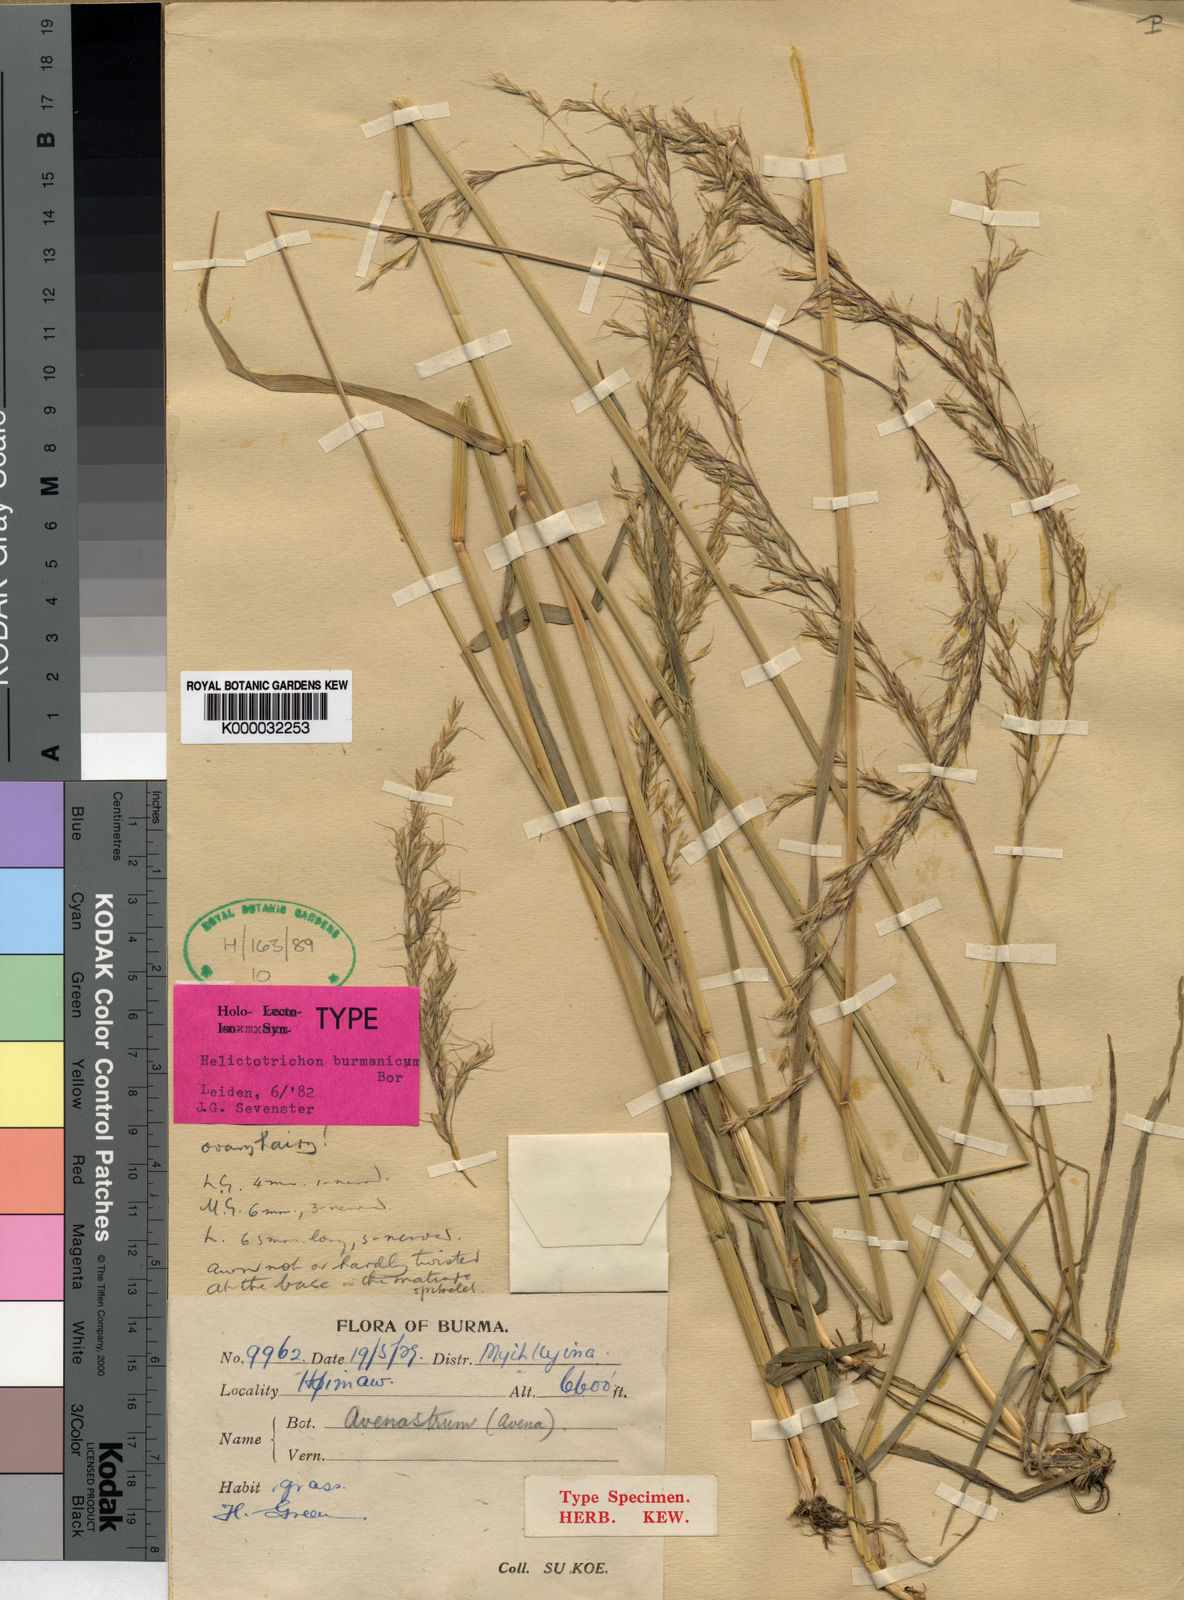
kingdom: Plantae
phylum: Tracheophyta
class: Liliopsida
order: Poales
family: Poaceae
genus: Tzveleviochloa
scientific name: Tzveleviochloa burmanica
